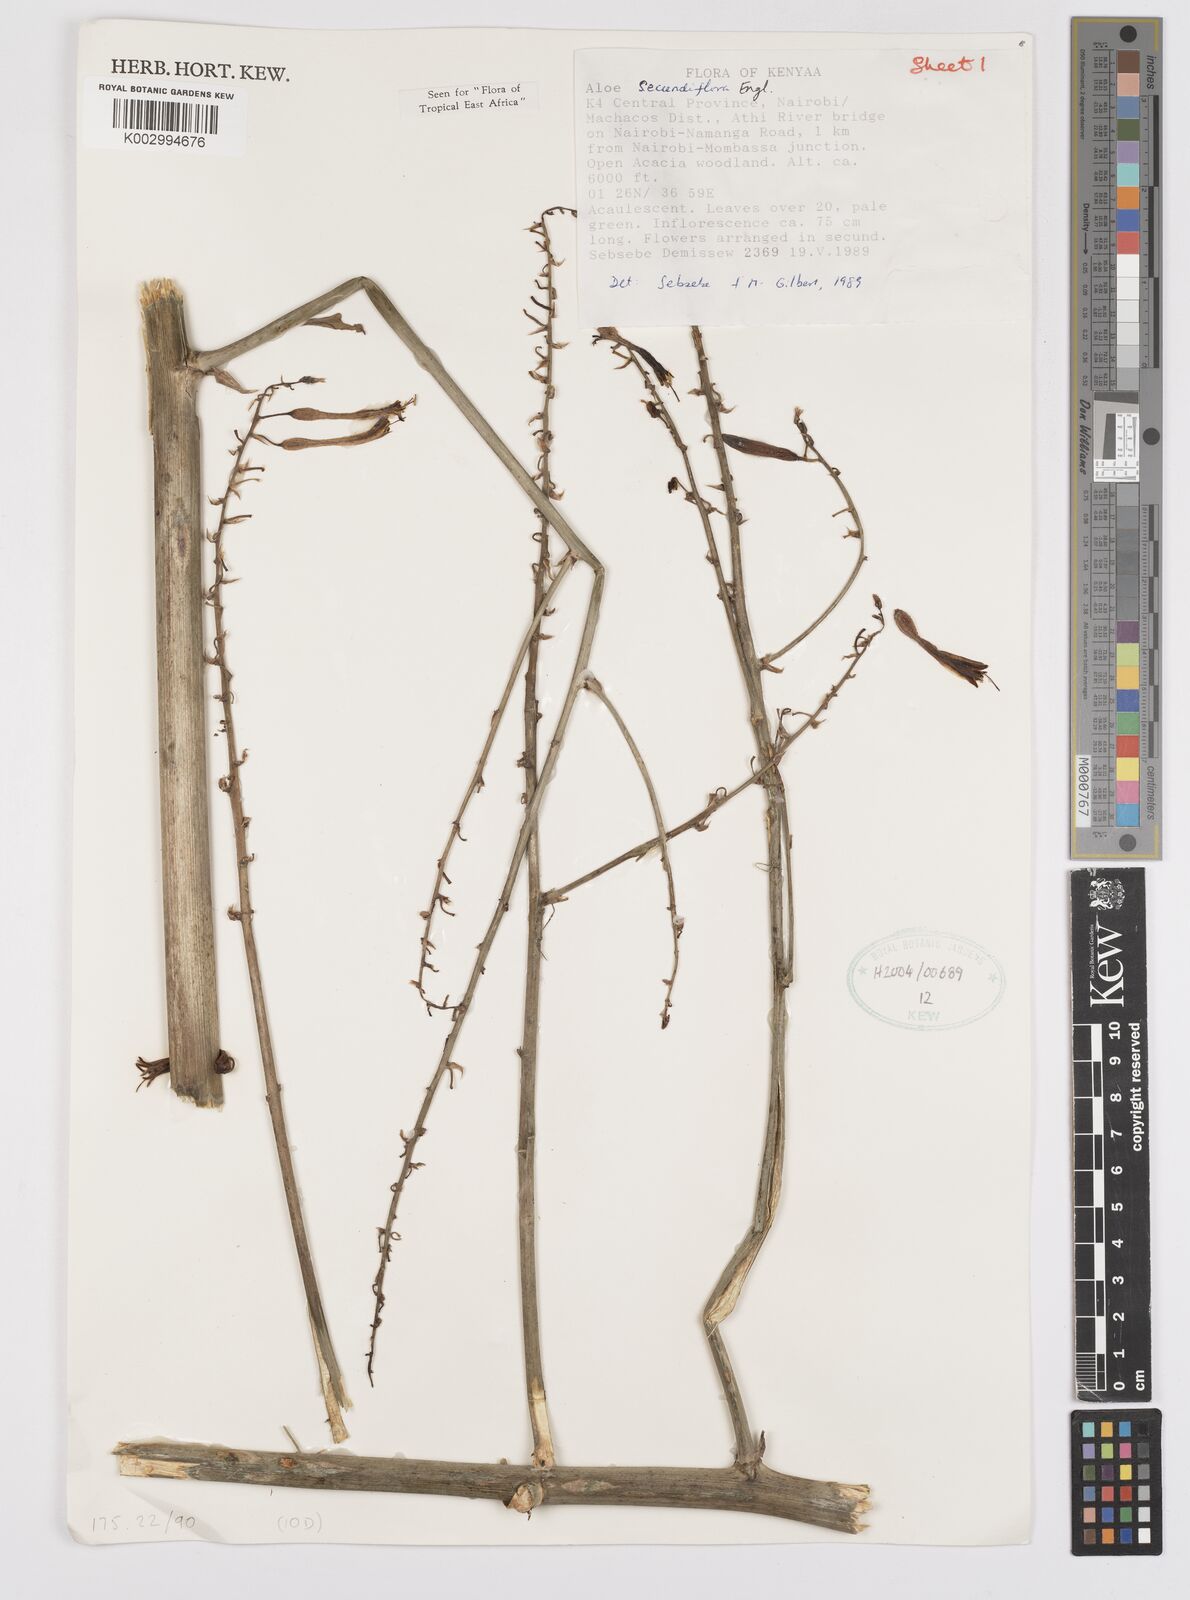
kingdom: Plantae
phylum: Tracheophyta
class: Liliopsida
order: Asparagales
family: Asphodelaceae
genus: Aloe
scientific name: Aloe secundiflora
